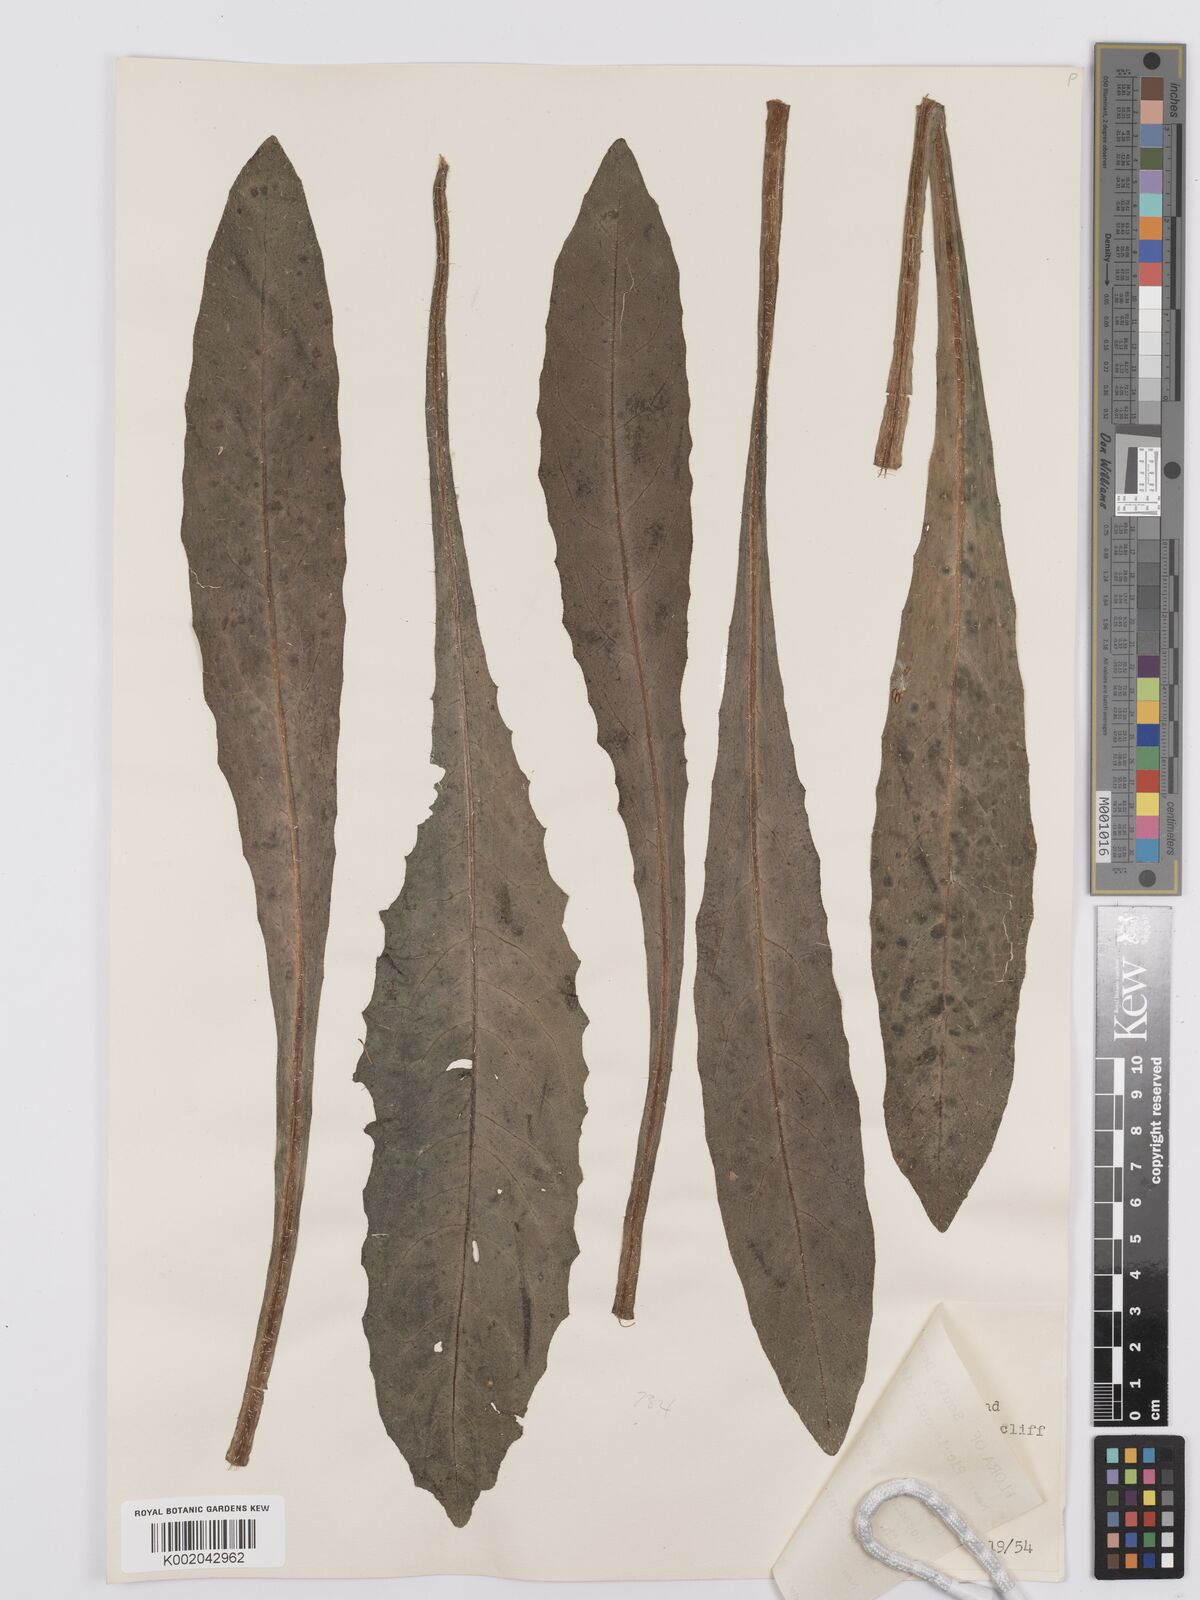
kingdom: Plantae
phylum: Tracheophyta
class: Magnoliopsida
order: Asterales
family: Asteraceae
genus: Helminthotheca
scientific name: Helminthotheca echioides
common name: Ox-tongue
